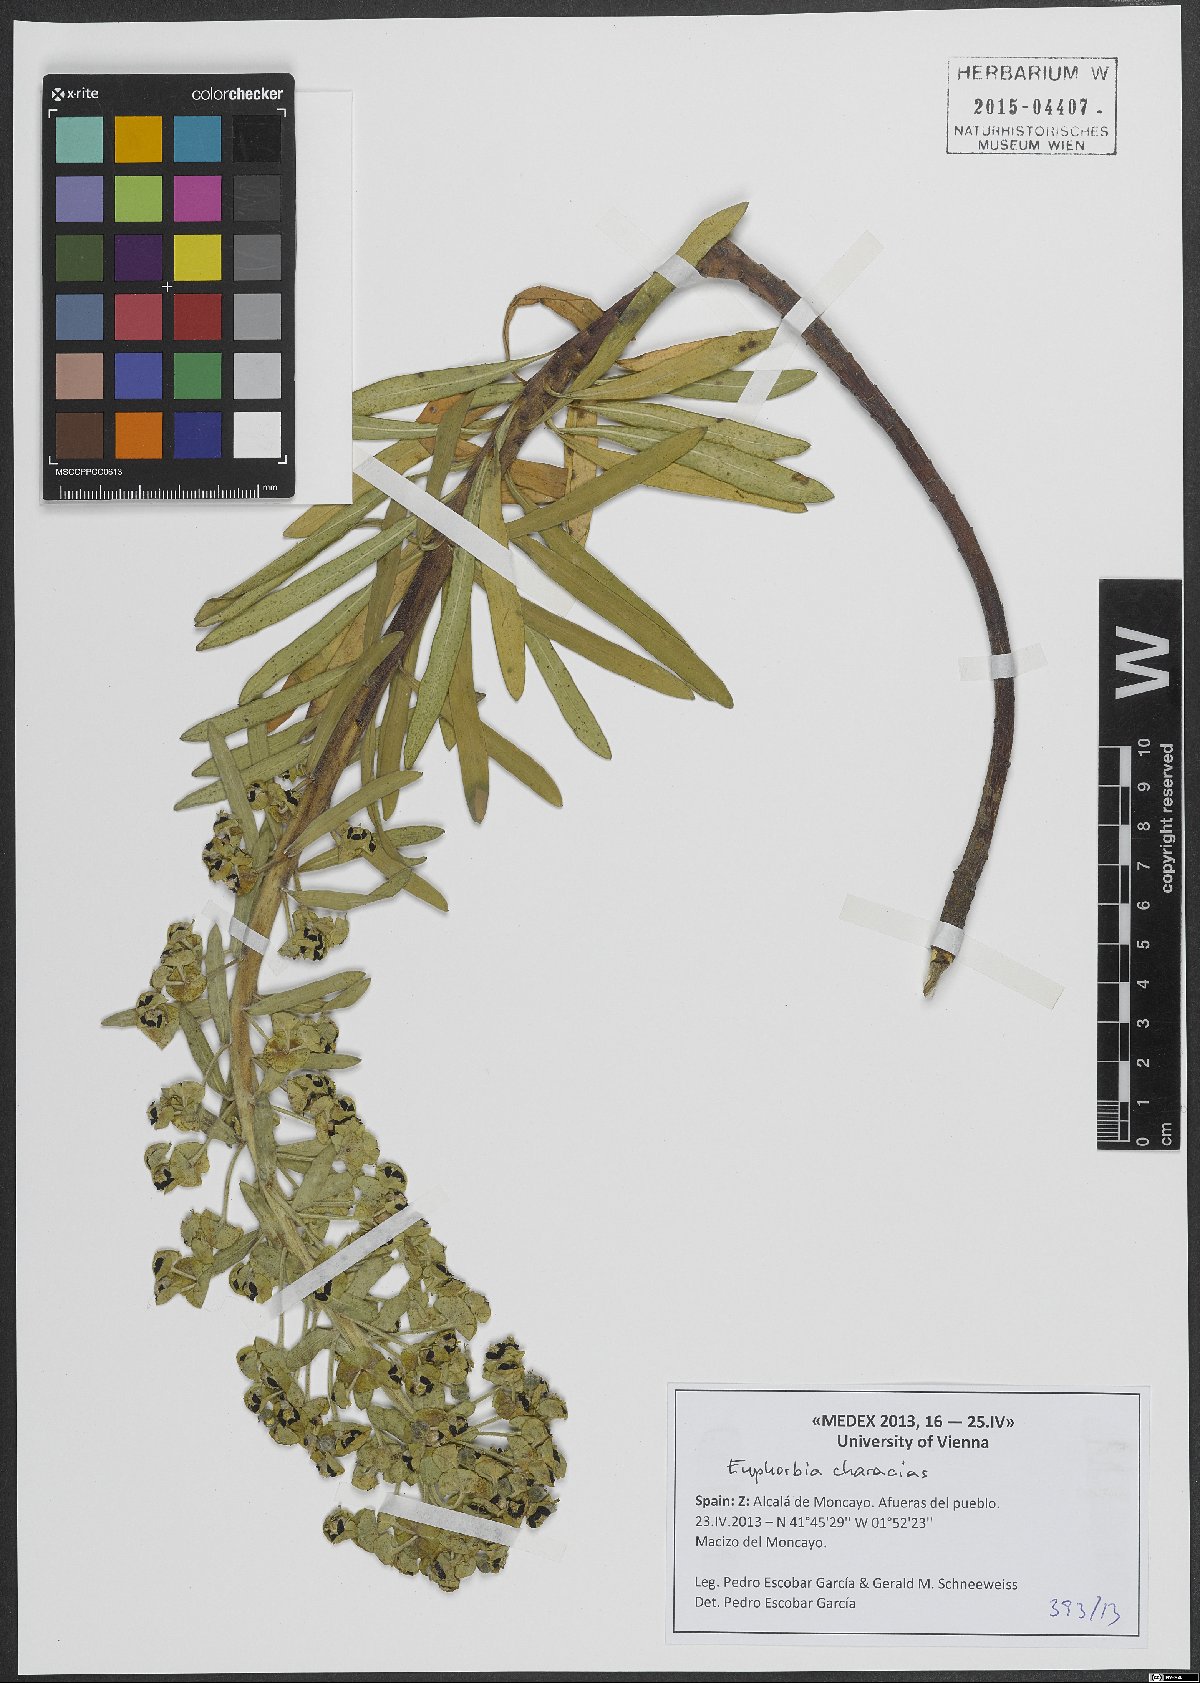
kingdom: Plantae
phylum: Tracheophyta
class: Magnoliopsida
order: Malpighiales
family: Euphorbiaceae
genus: Euphorbia
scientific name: Euphorbia characias
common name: Mediterranean spurge
